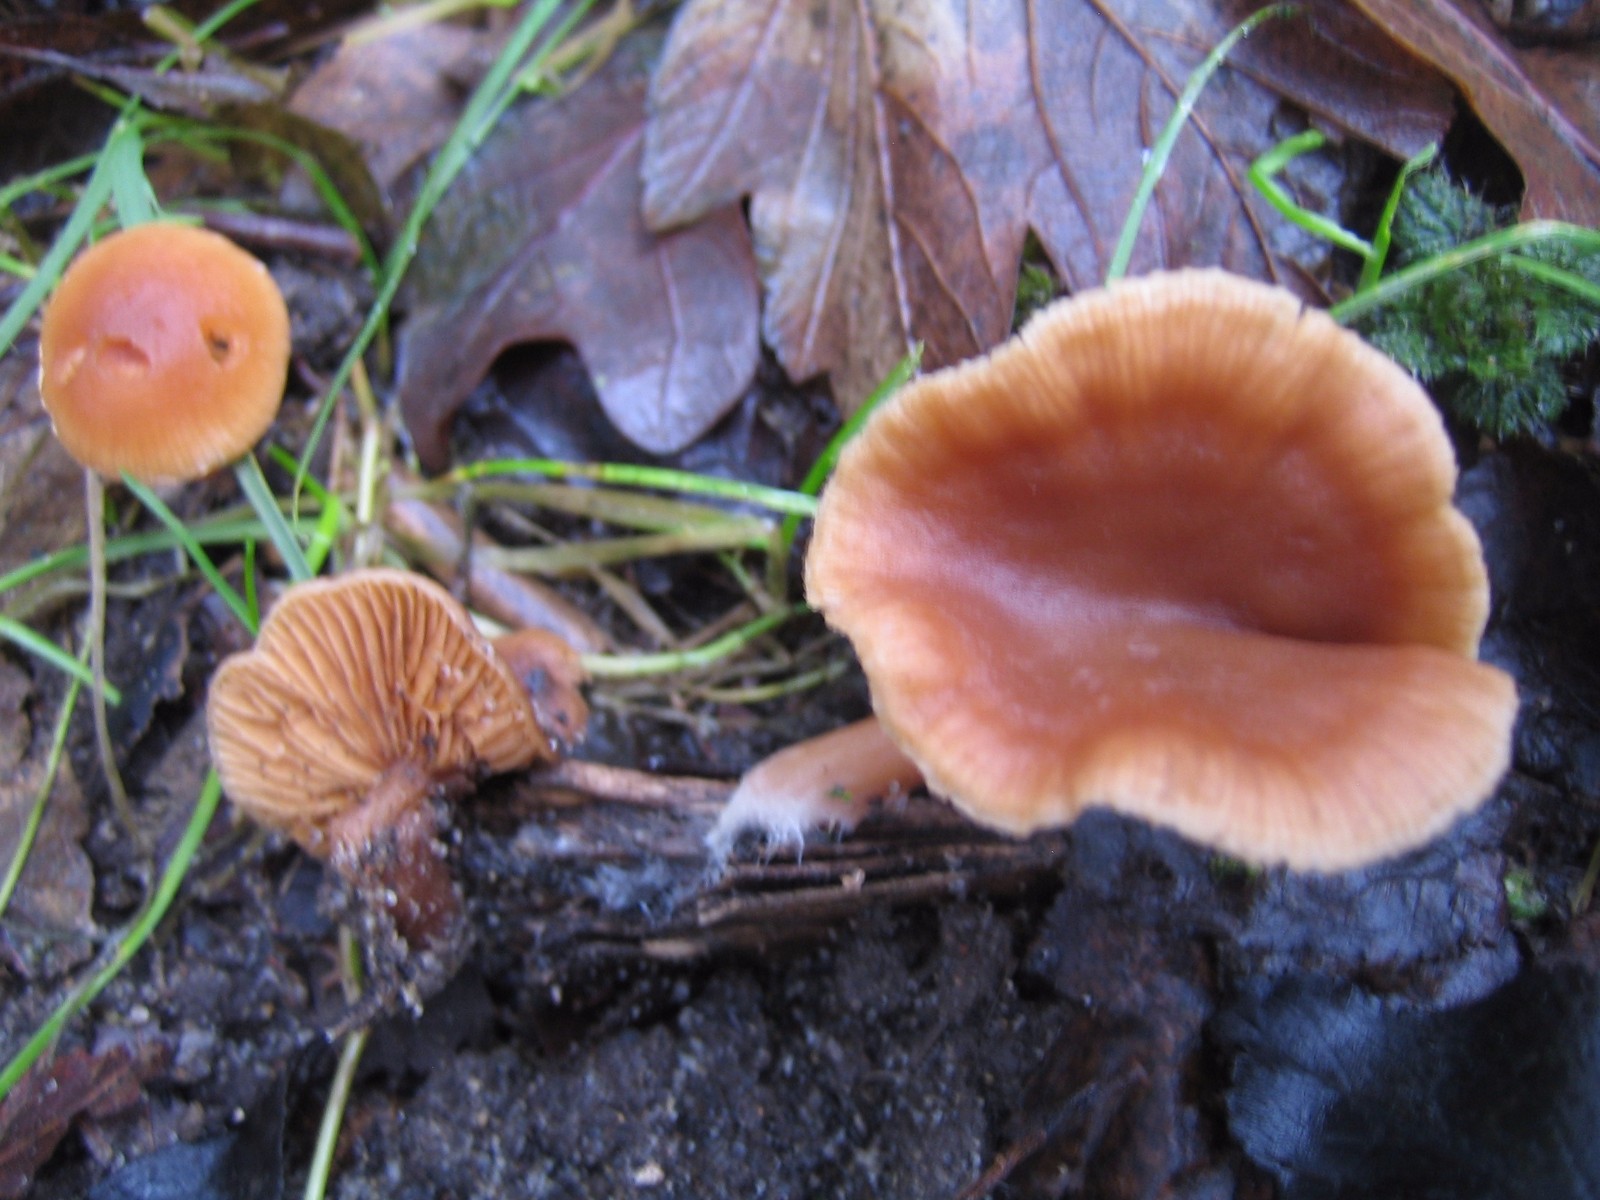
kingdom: Fungi
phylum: Basidiomycota
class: Agaricomycetes
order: Agaricales
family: Tubariaceae
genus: Tubaria
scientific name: Tubaria furfuracea
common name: kliddet fnughat
